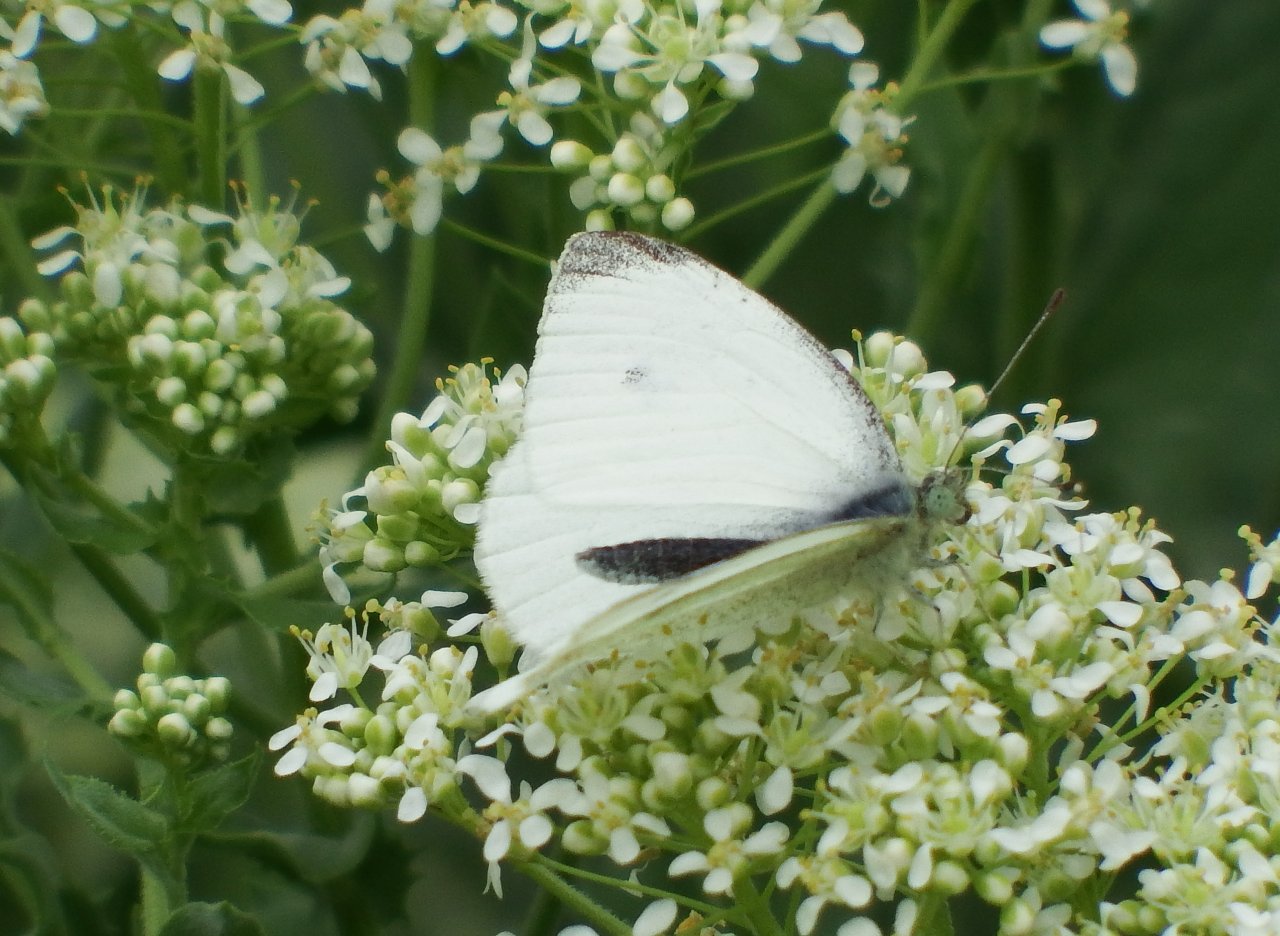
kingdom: Animalia
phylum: Arthropoda
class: Insecta
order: Lepidoptera
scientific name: Lepidoptera
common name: Butterflies
